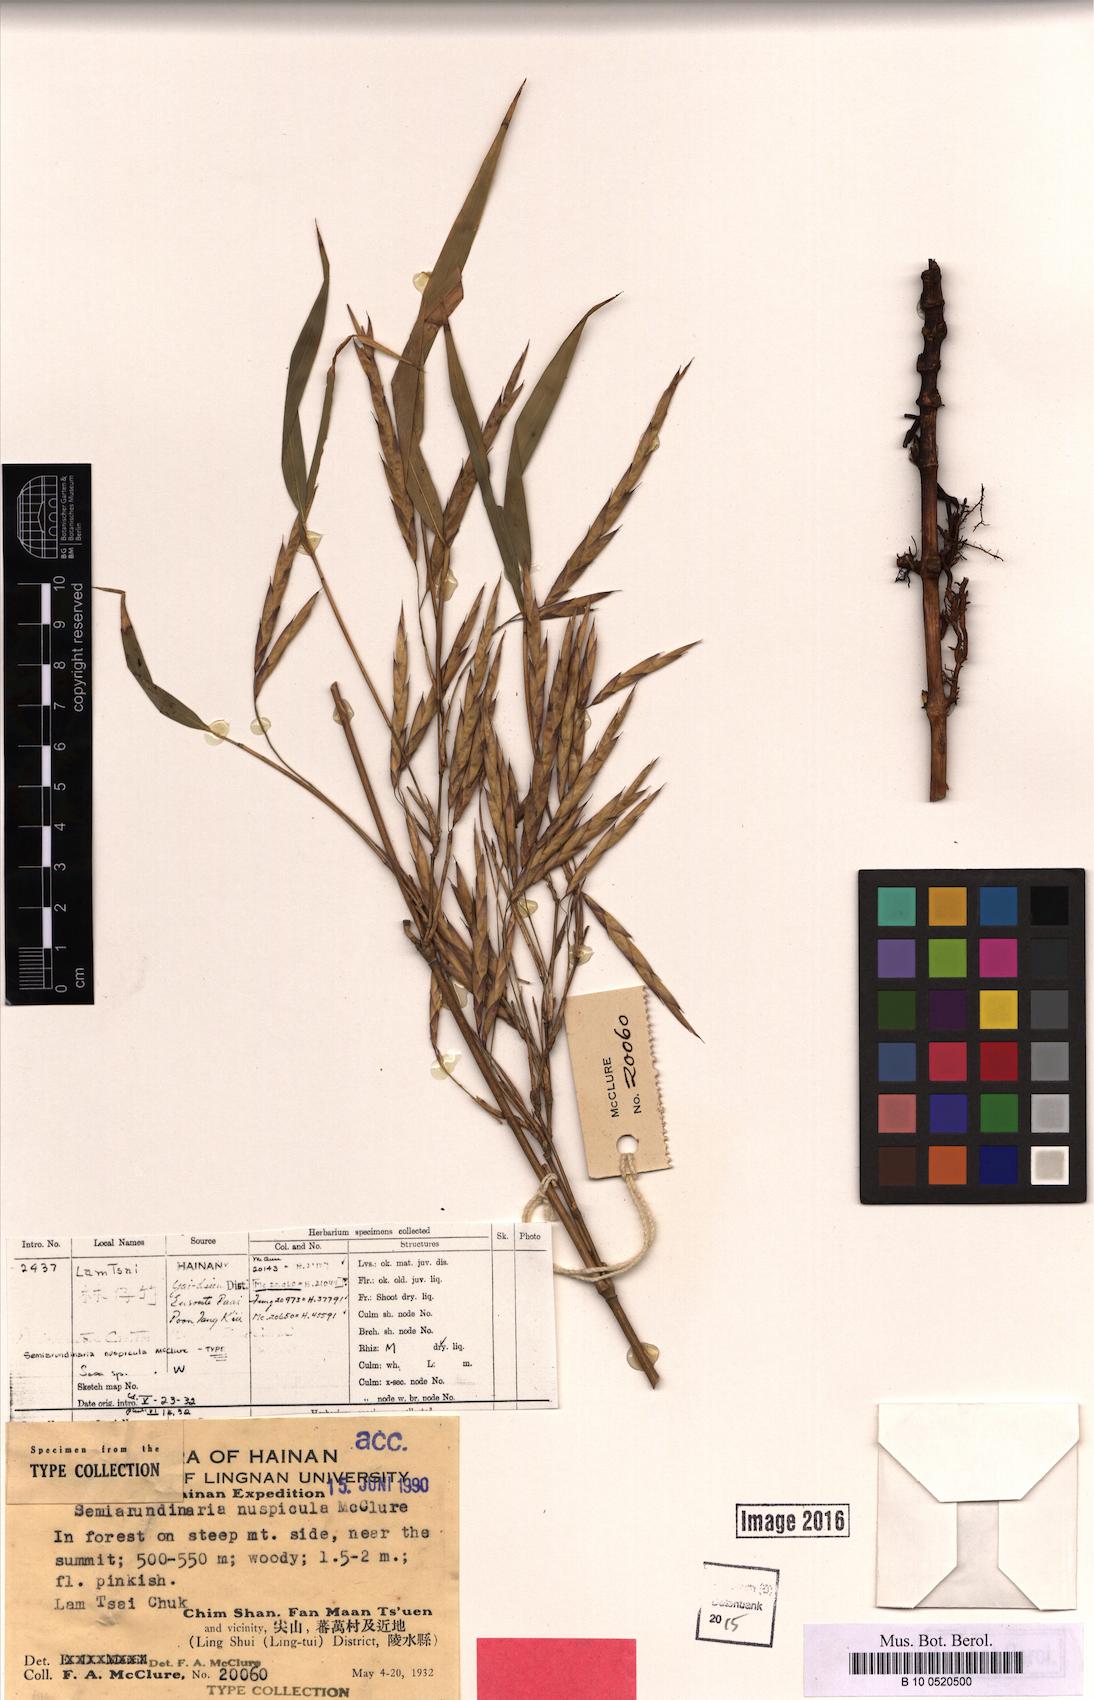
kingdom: Plantae
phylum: Tracheophyta
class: Liliopsida
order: Poales
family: Poaceae
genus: Oligostachyum
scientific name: Oligostachyum nuspiculum
